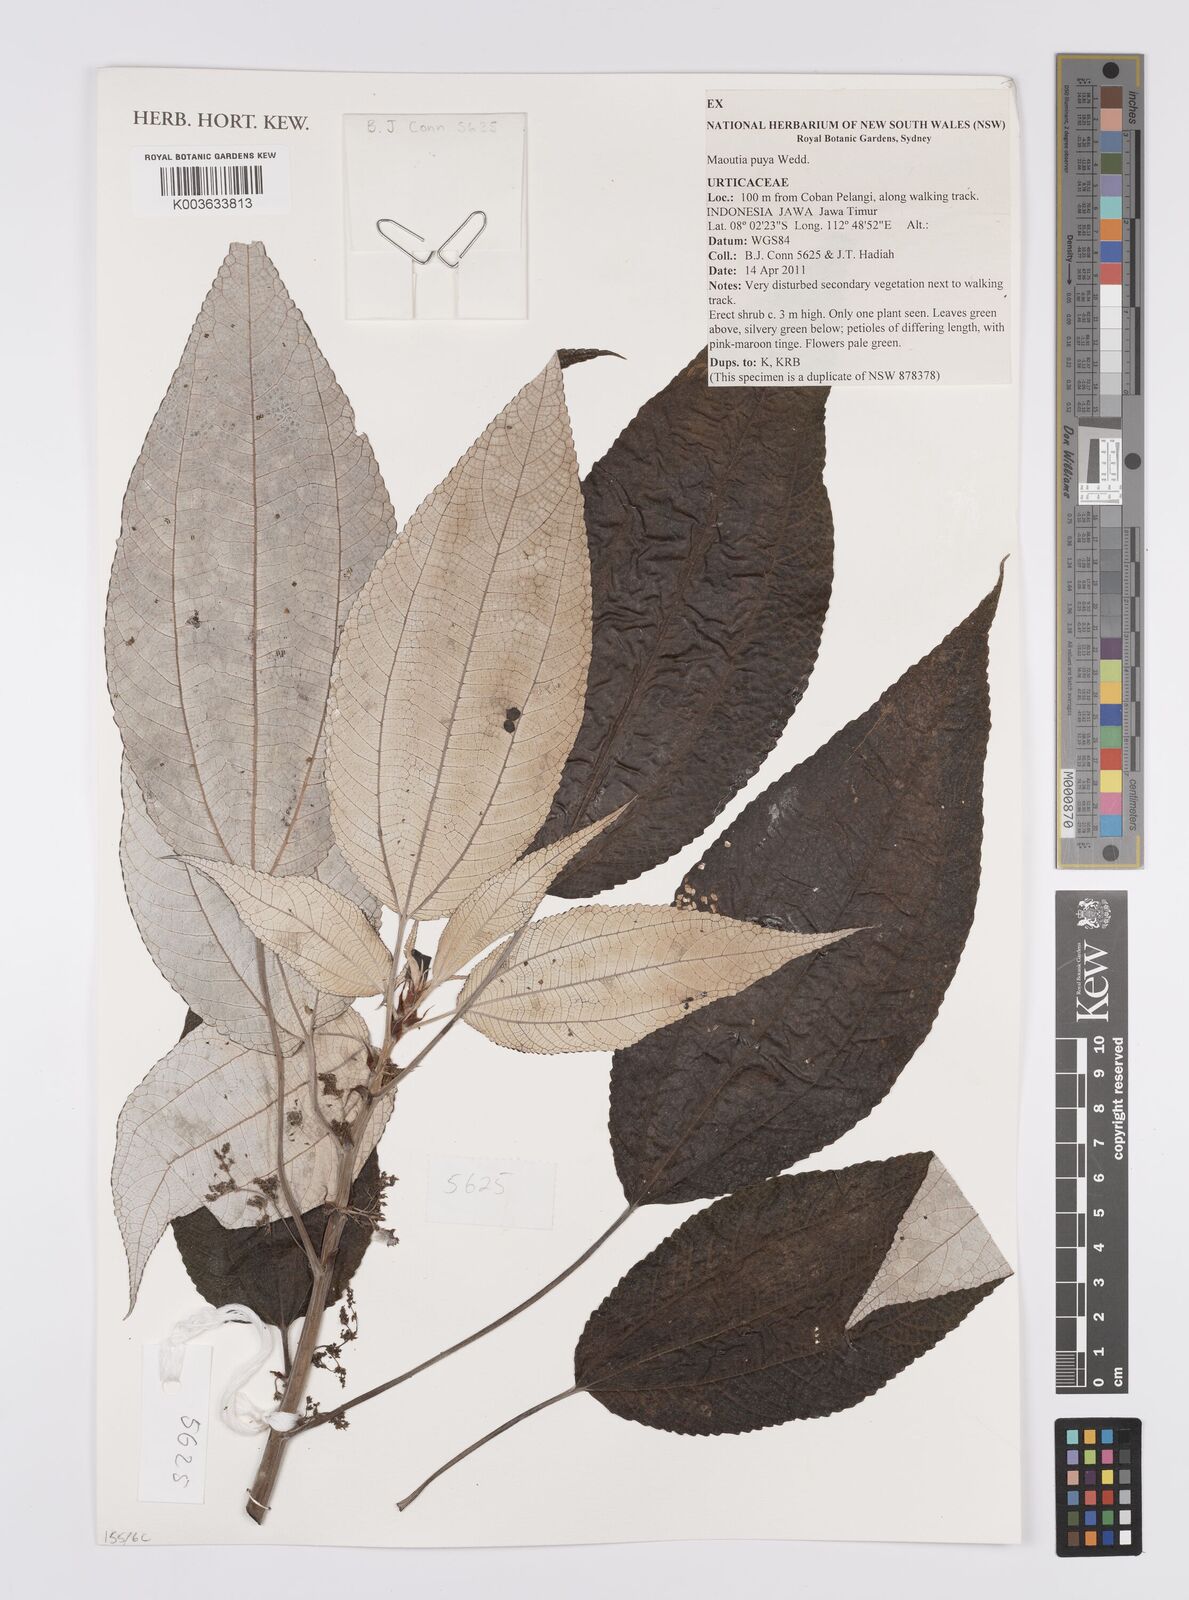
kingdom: Plantae
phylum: Tracheophyta
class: Magnoliopsida
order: Rosales
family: Urticaceae
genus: Maoutia
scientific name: Maoutia diversifolia
